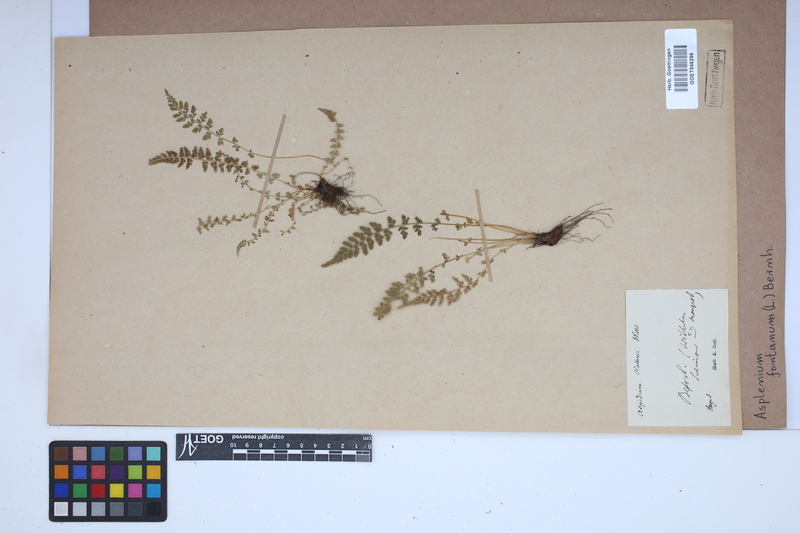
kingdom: Plantae
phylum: Tracheophyta
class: Polypodiopsida
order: Polypodiales
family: Aspleniaceae
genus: Asplenium
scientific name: Asplenium fontanum
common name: Fountain spleenwort
